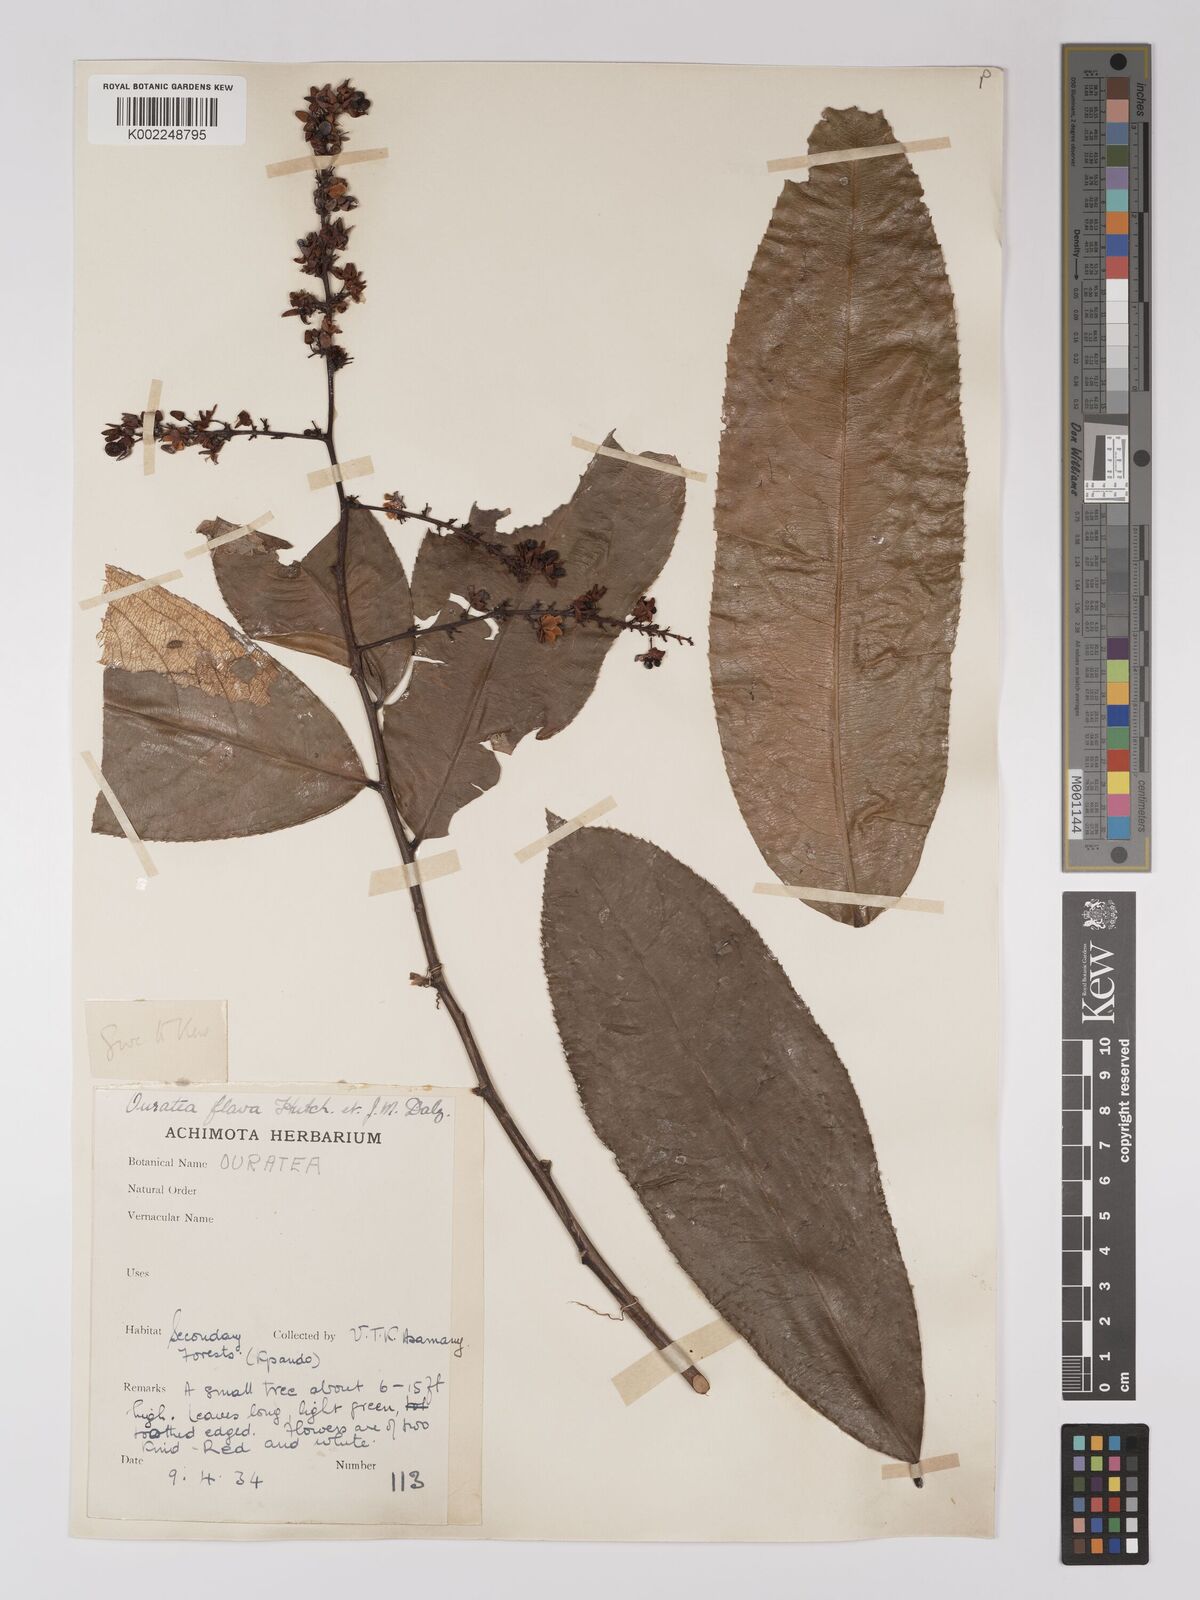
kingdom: Plantae
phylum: Tracheophyta
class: Magnoliopsida
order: Malpighiales
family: Ochnaceae
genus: Campylospermum
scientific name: Campylospermum flavum
